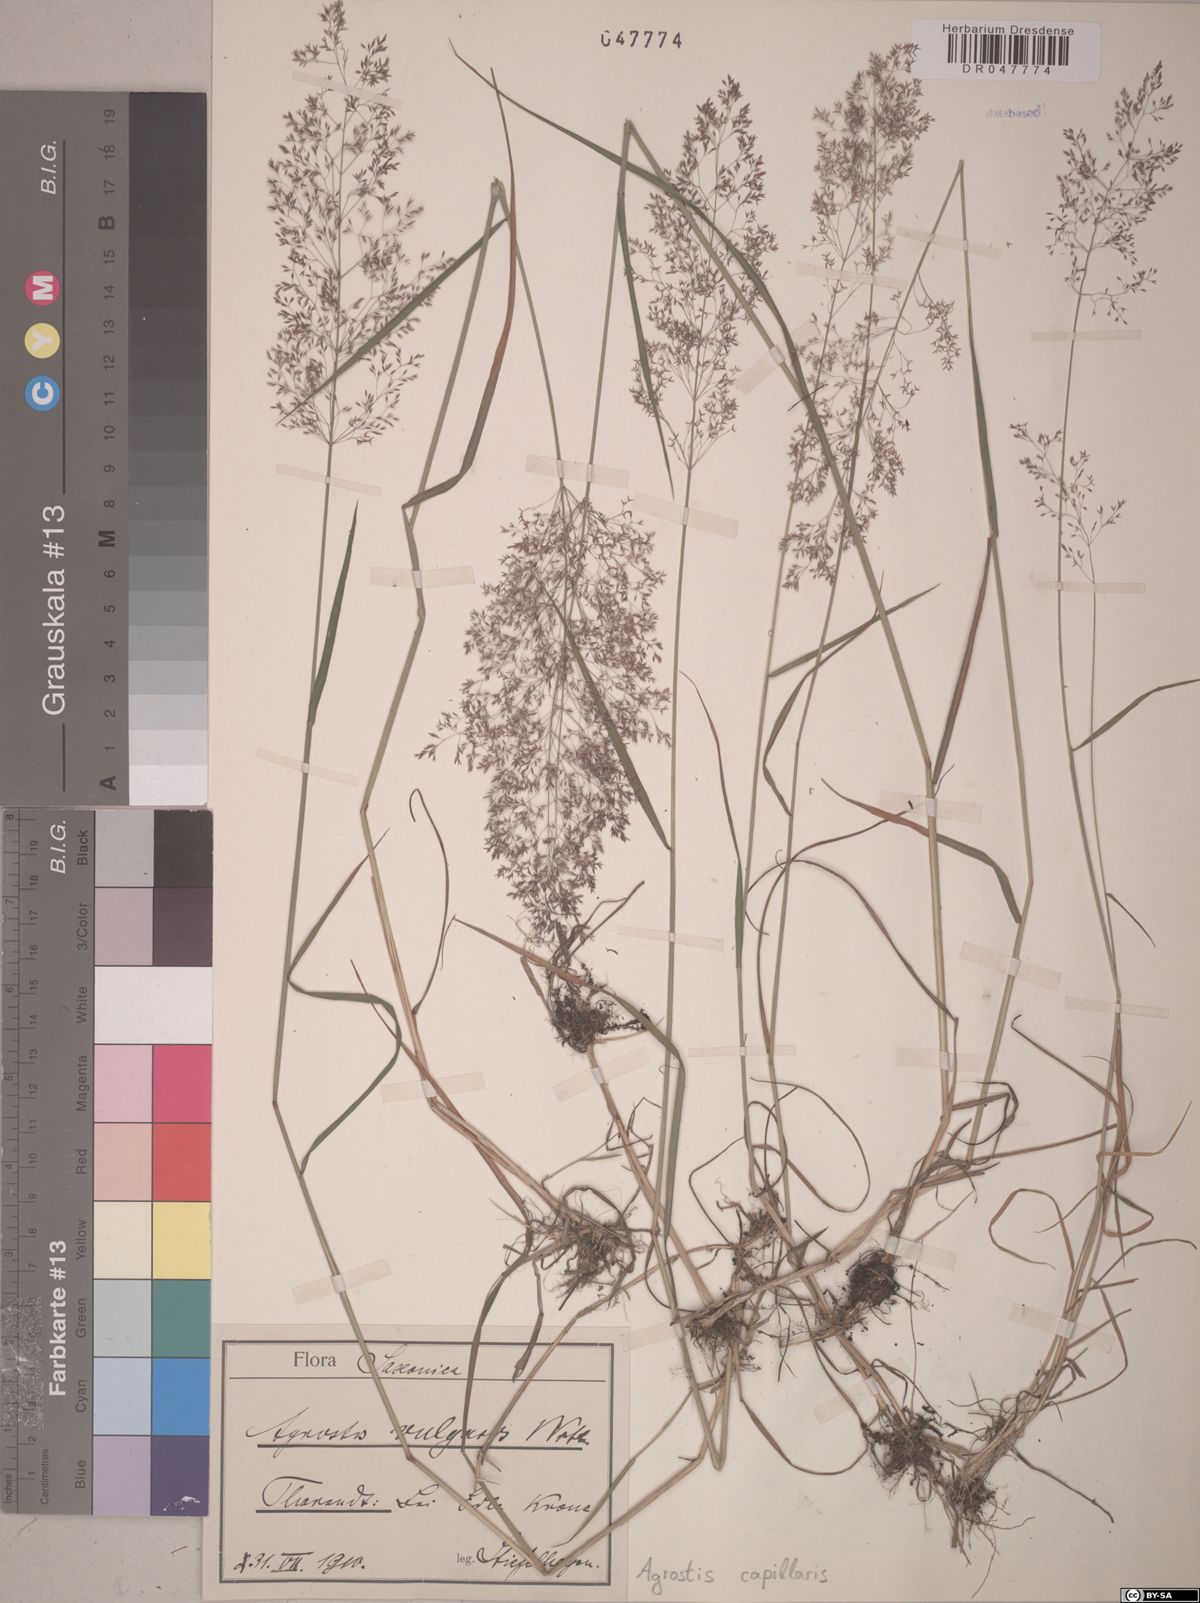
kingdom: Plantae
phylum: Tracheophyta
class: Liliopsida
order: Poales
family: Poaceae
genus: Agrostis
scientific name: Agrostis capillaris
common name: Colonial bentgrass
